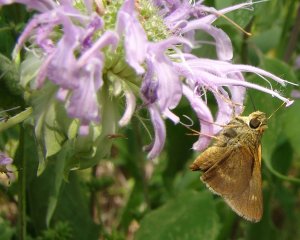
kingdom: Animalia
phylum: Arthropoda
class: Insecta
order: Lepidoptera
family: Hesperiidae
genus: Polites
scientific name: Polites egeremet
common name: Northern Broken-Dash
